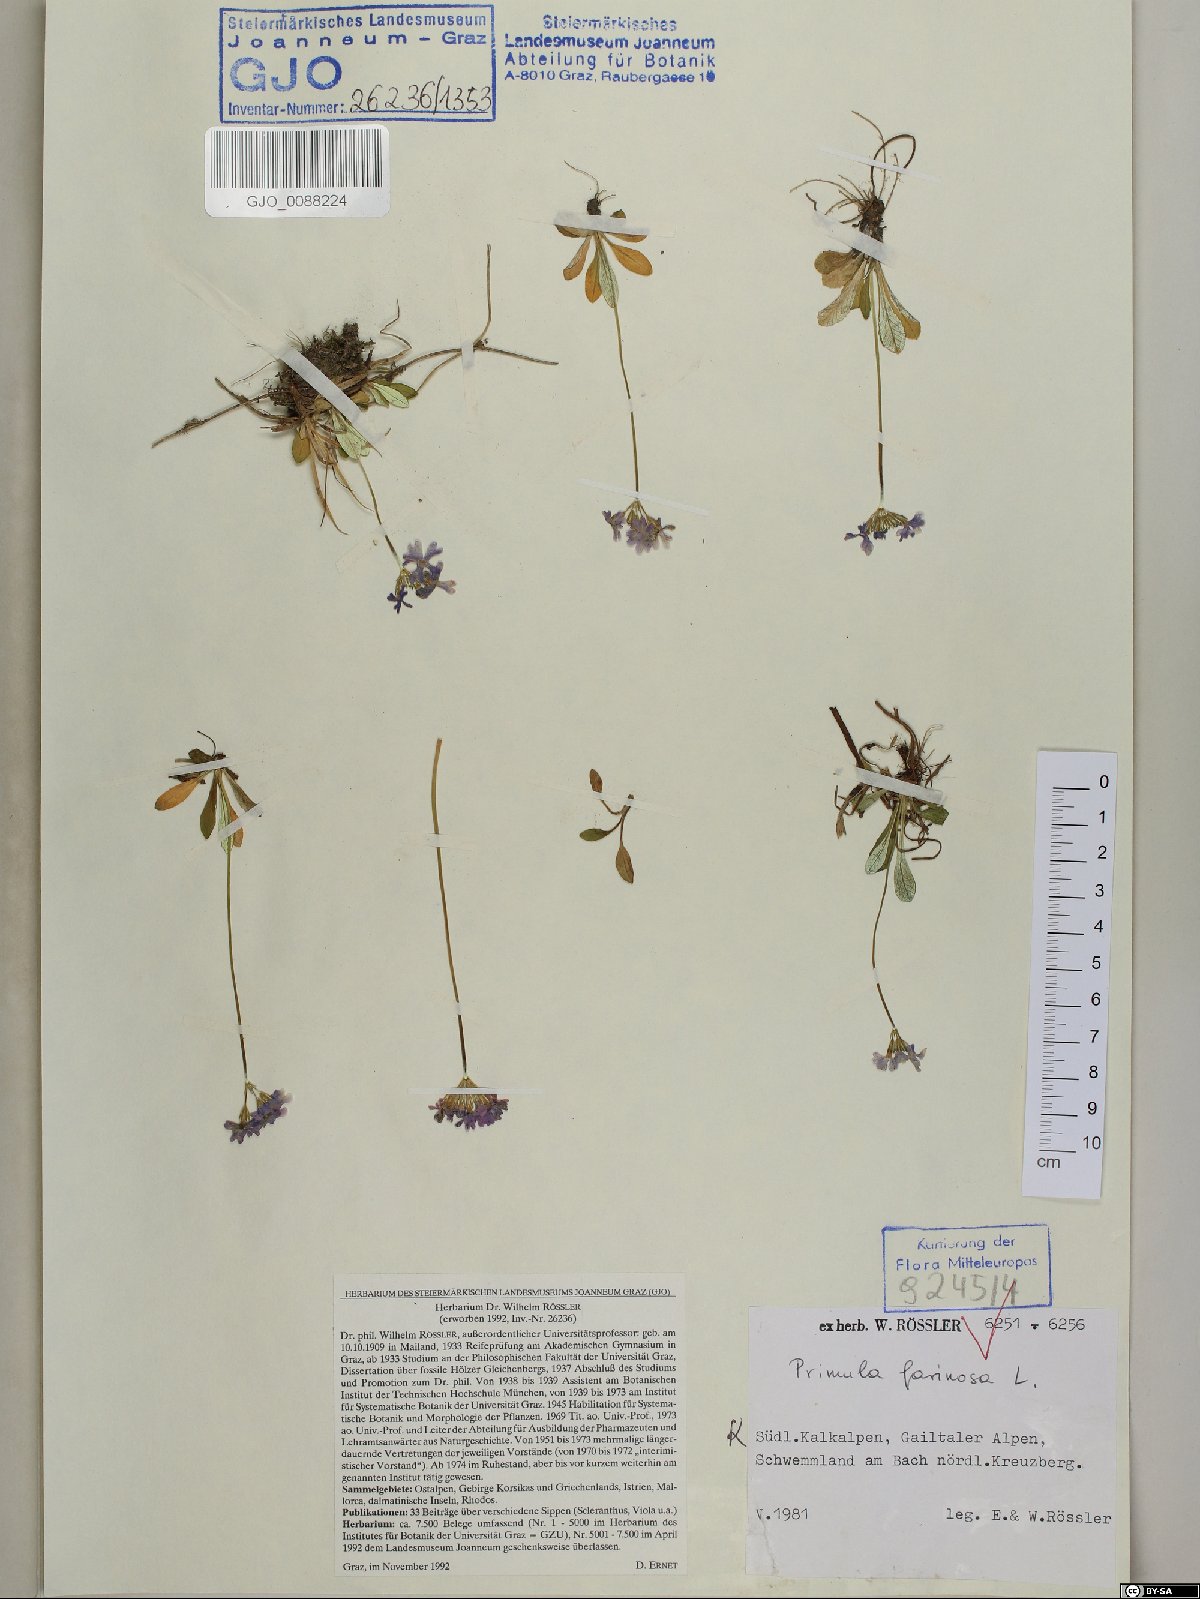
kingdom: Plantae
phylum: Tracheophyta
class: Magnoliopsida
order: Ericales
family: Primulaceae
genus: Primula
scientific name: Primula farinosa
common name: Bird's-eye primrose
